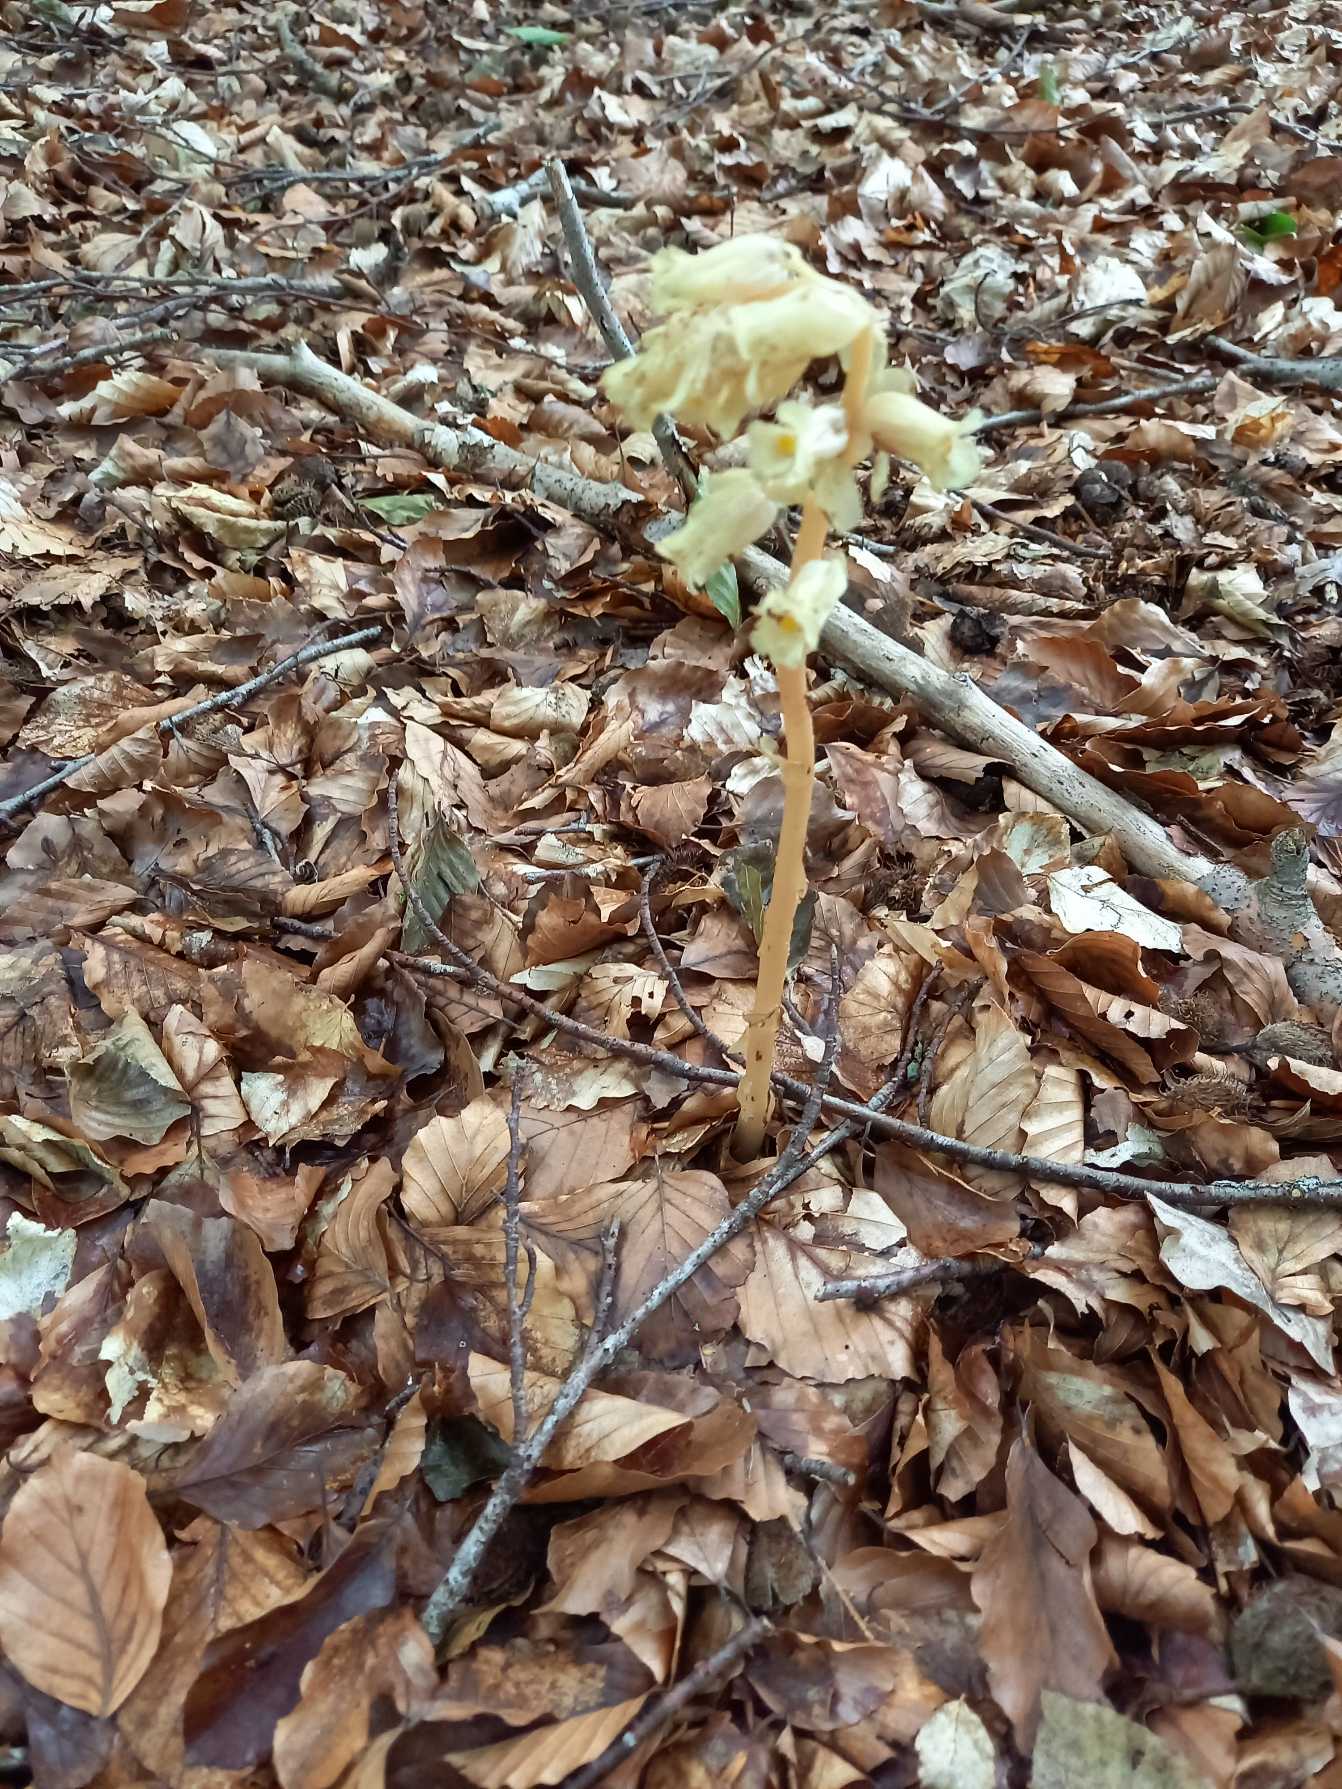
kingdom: Plantae
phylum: Tracheophyta
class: Magnoliopsida
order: Ericales
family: Ericaceae
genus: Hypopitys
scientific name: Hypopitys monotropa
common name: Snylterod
